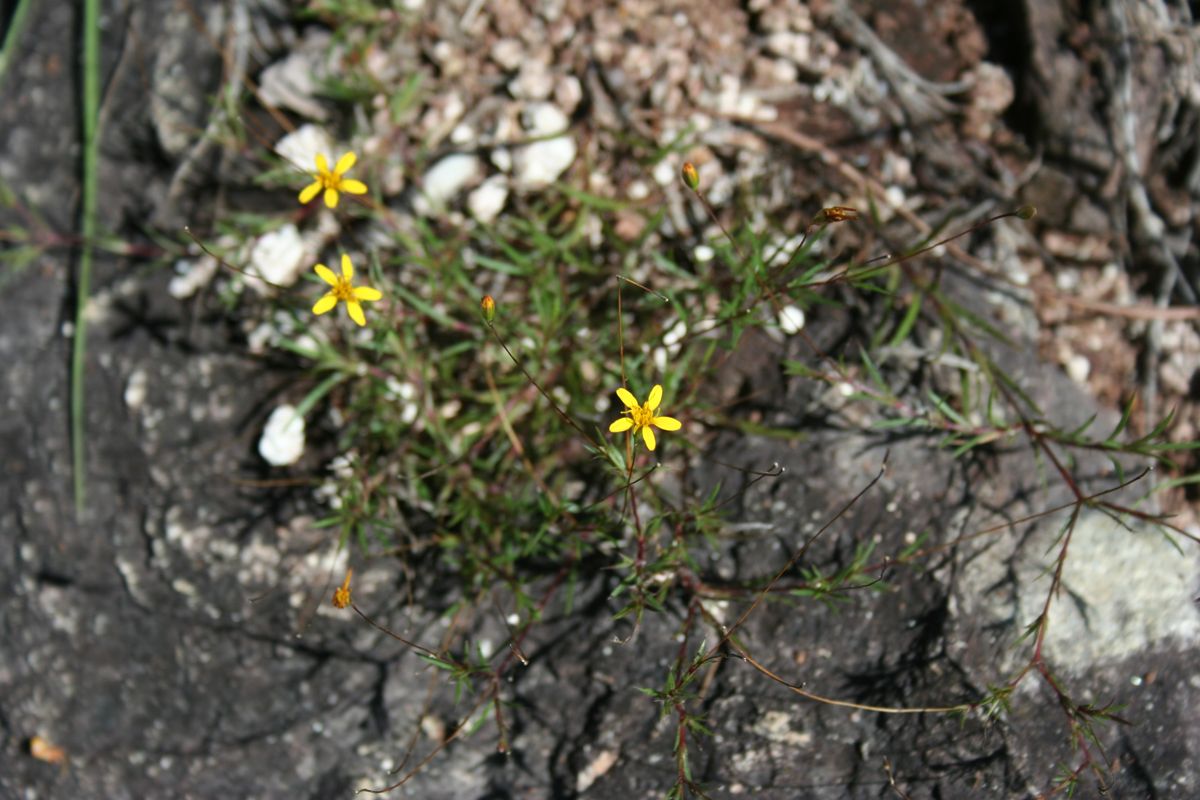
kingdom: Plantae
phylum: Tracheophyta
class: Magnoliopsida
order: Asterales
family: Asteraceae
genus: Pectis
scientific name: Pectis capillipes
